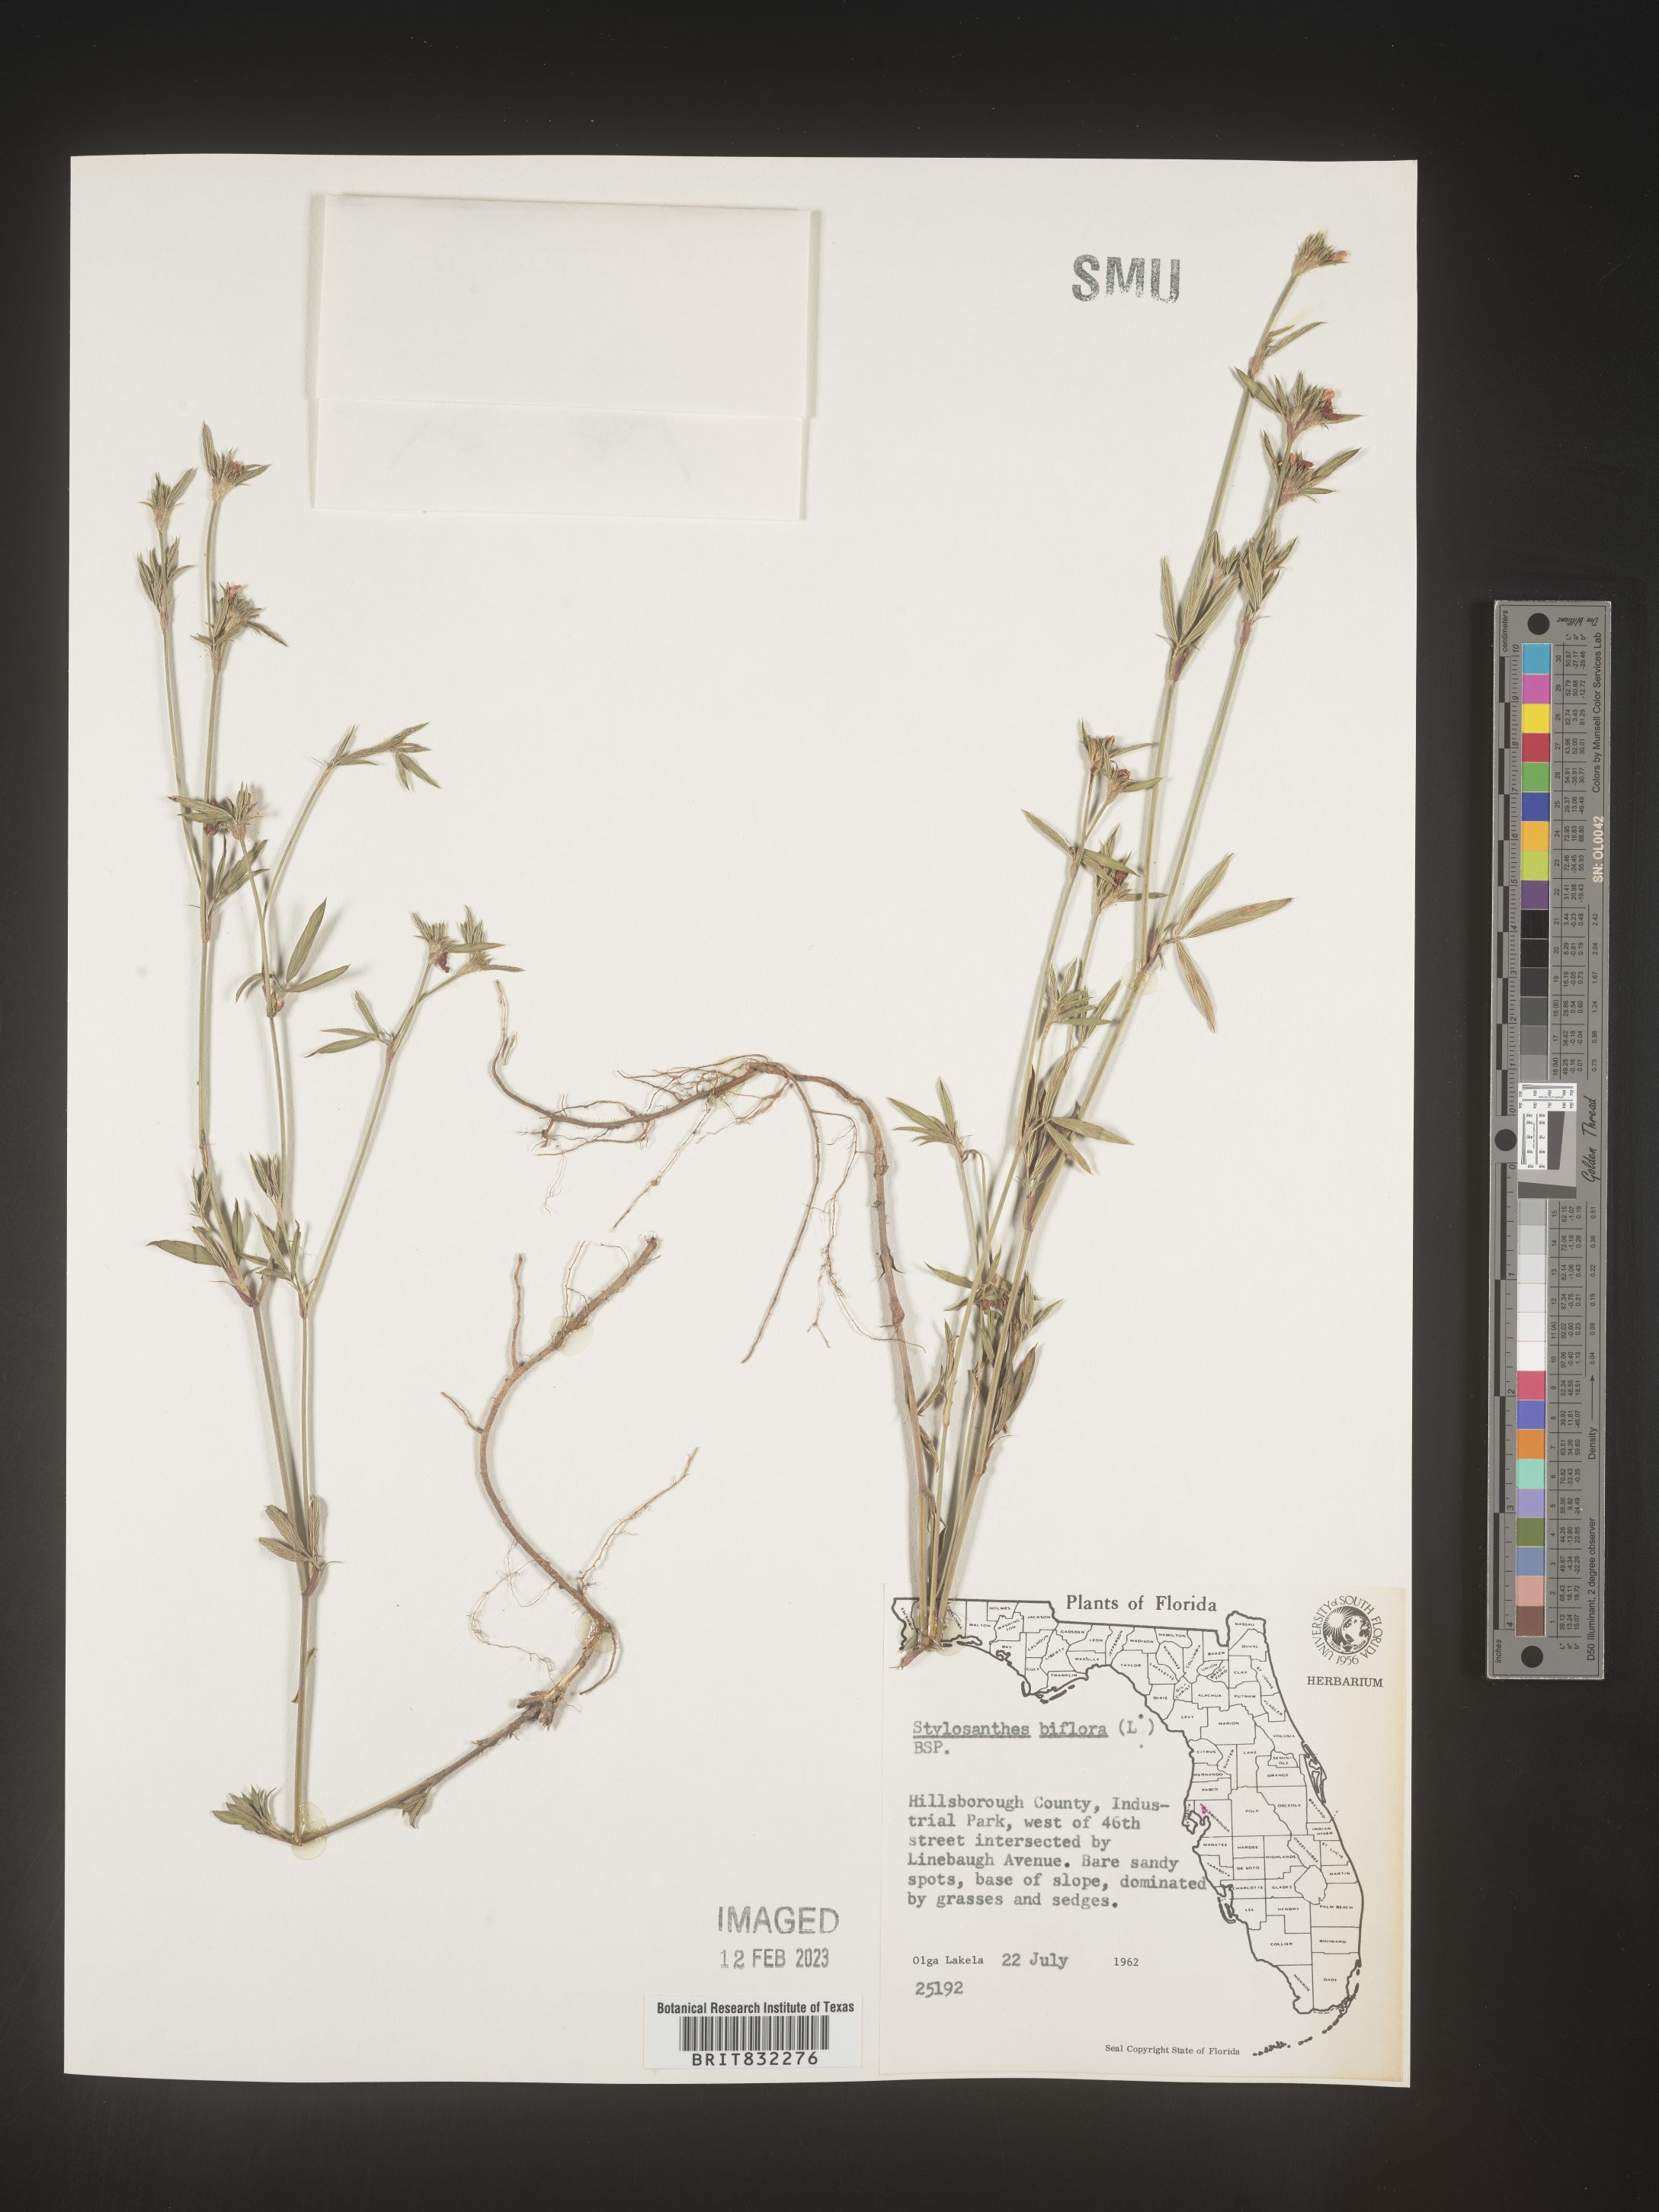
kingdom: Plantae
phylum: Tracheophyta
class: Magnoliopsida
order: Fabales
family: Fabaceae
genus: Stylosanthes
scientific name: Stylosanthes biflora
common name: Two-flower pencil-flower
